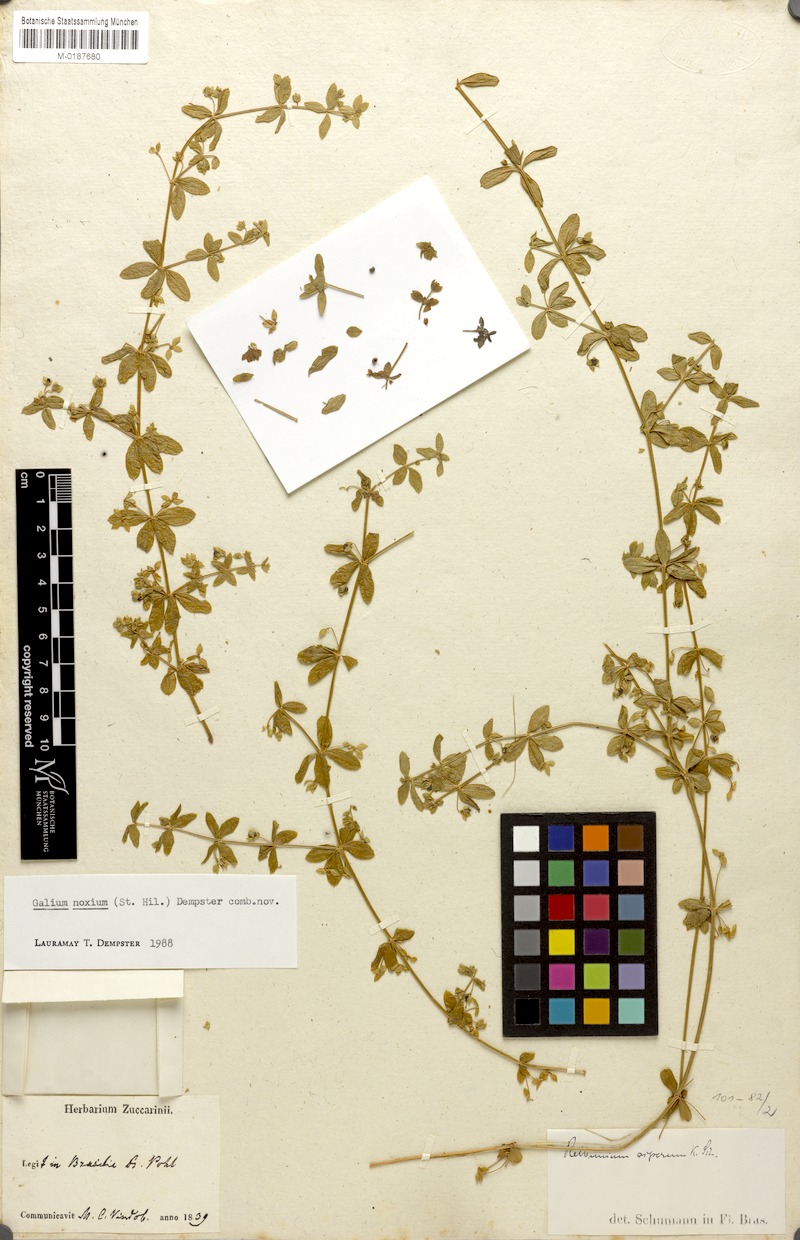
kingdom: Plantae
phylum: Tracheophyta
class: Magnoliopsida
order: Gentianales
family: Rubiaceae
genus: Galium
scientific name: Galium noxium
